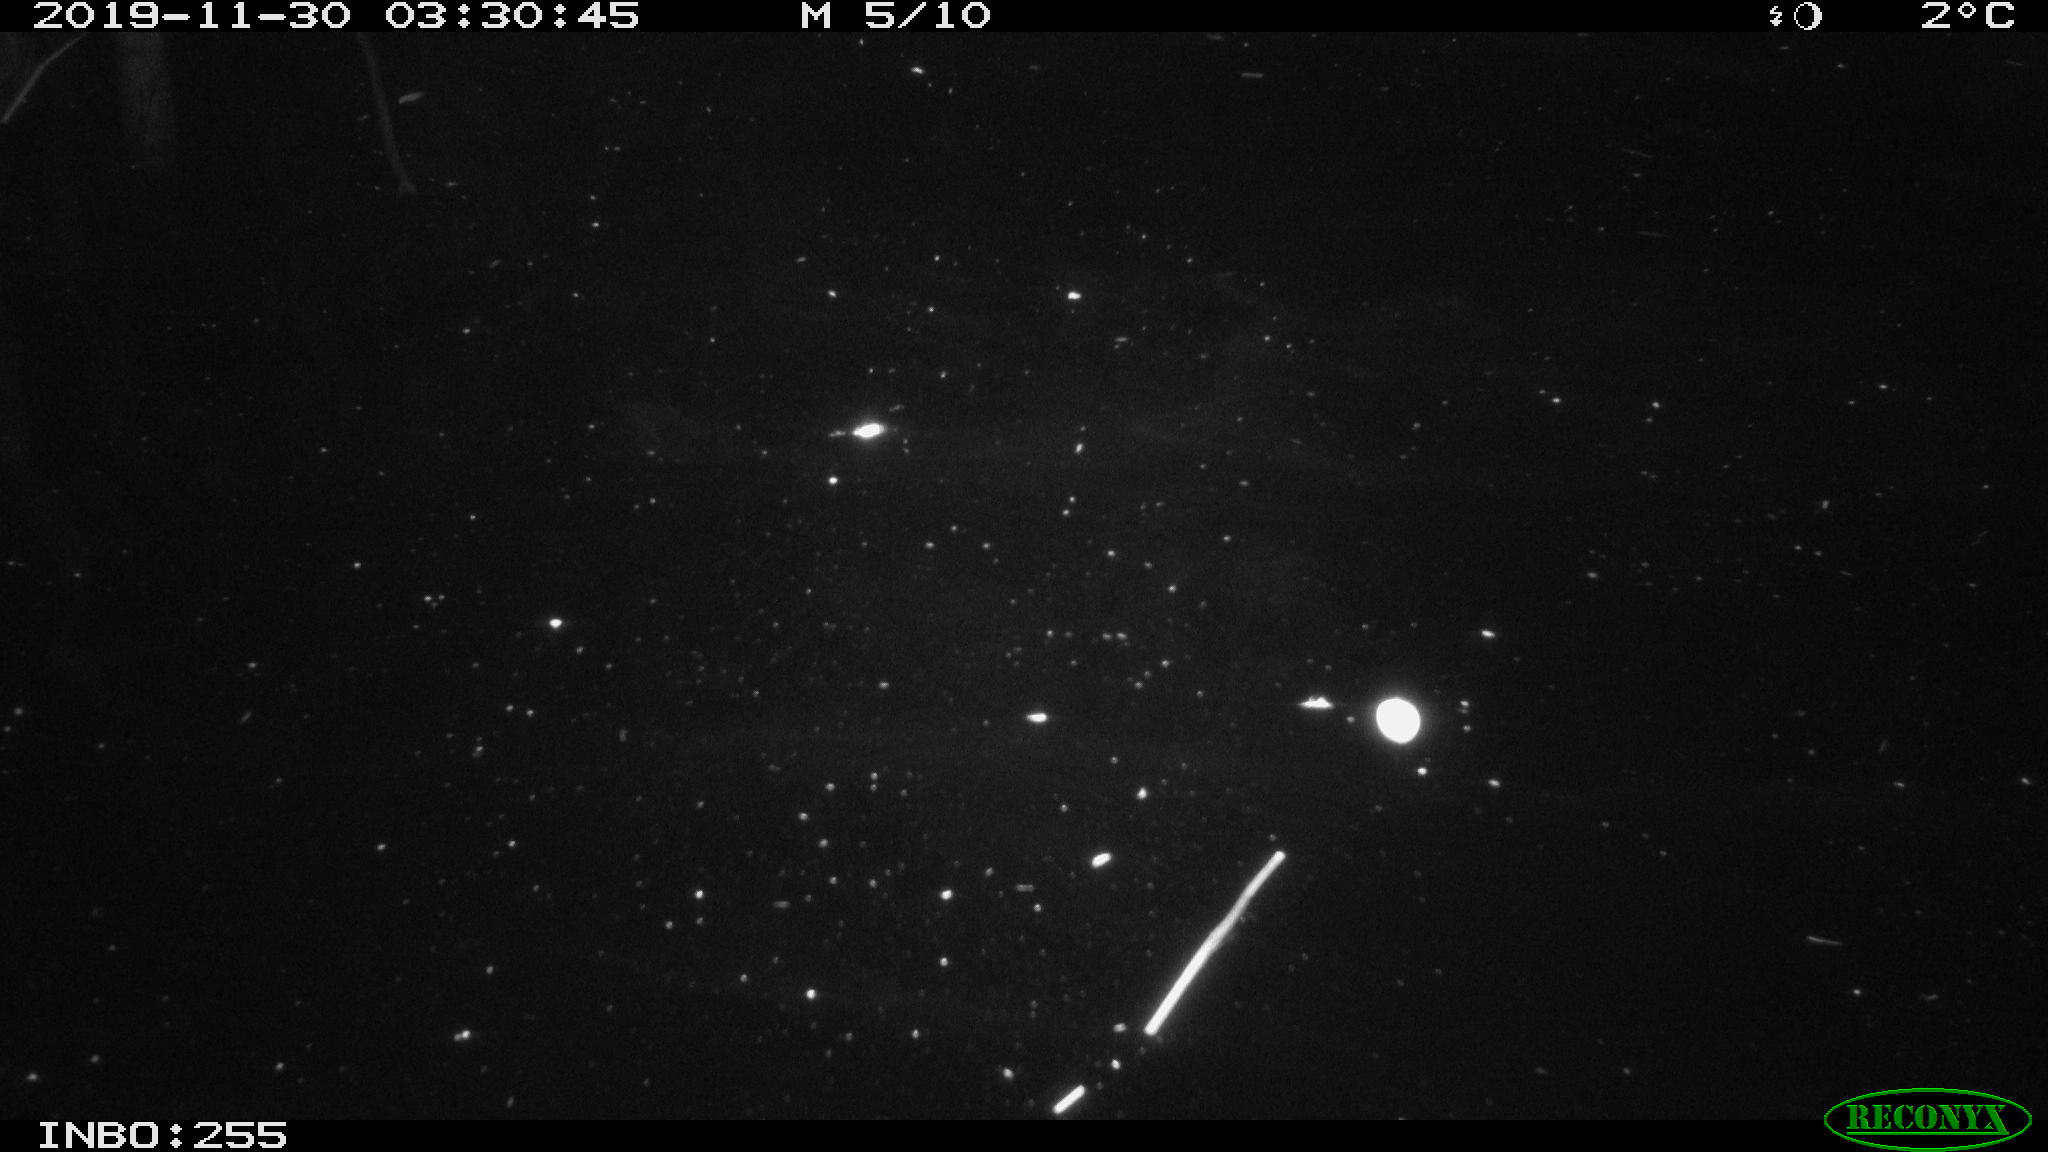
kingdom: Animalia
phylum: Chordata
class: Mammalia
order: Rodentia
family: Cricetidae
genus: Ondatra
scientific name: Ondatra zibethicus
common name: Muskrat
